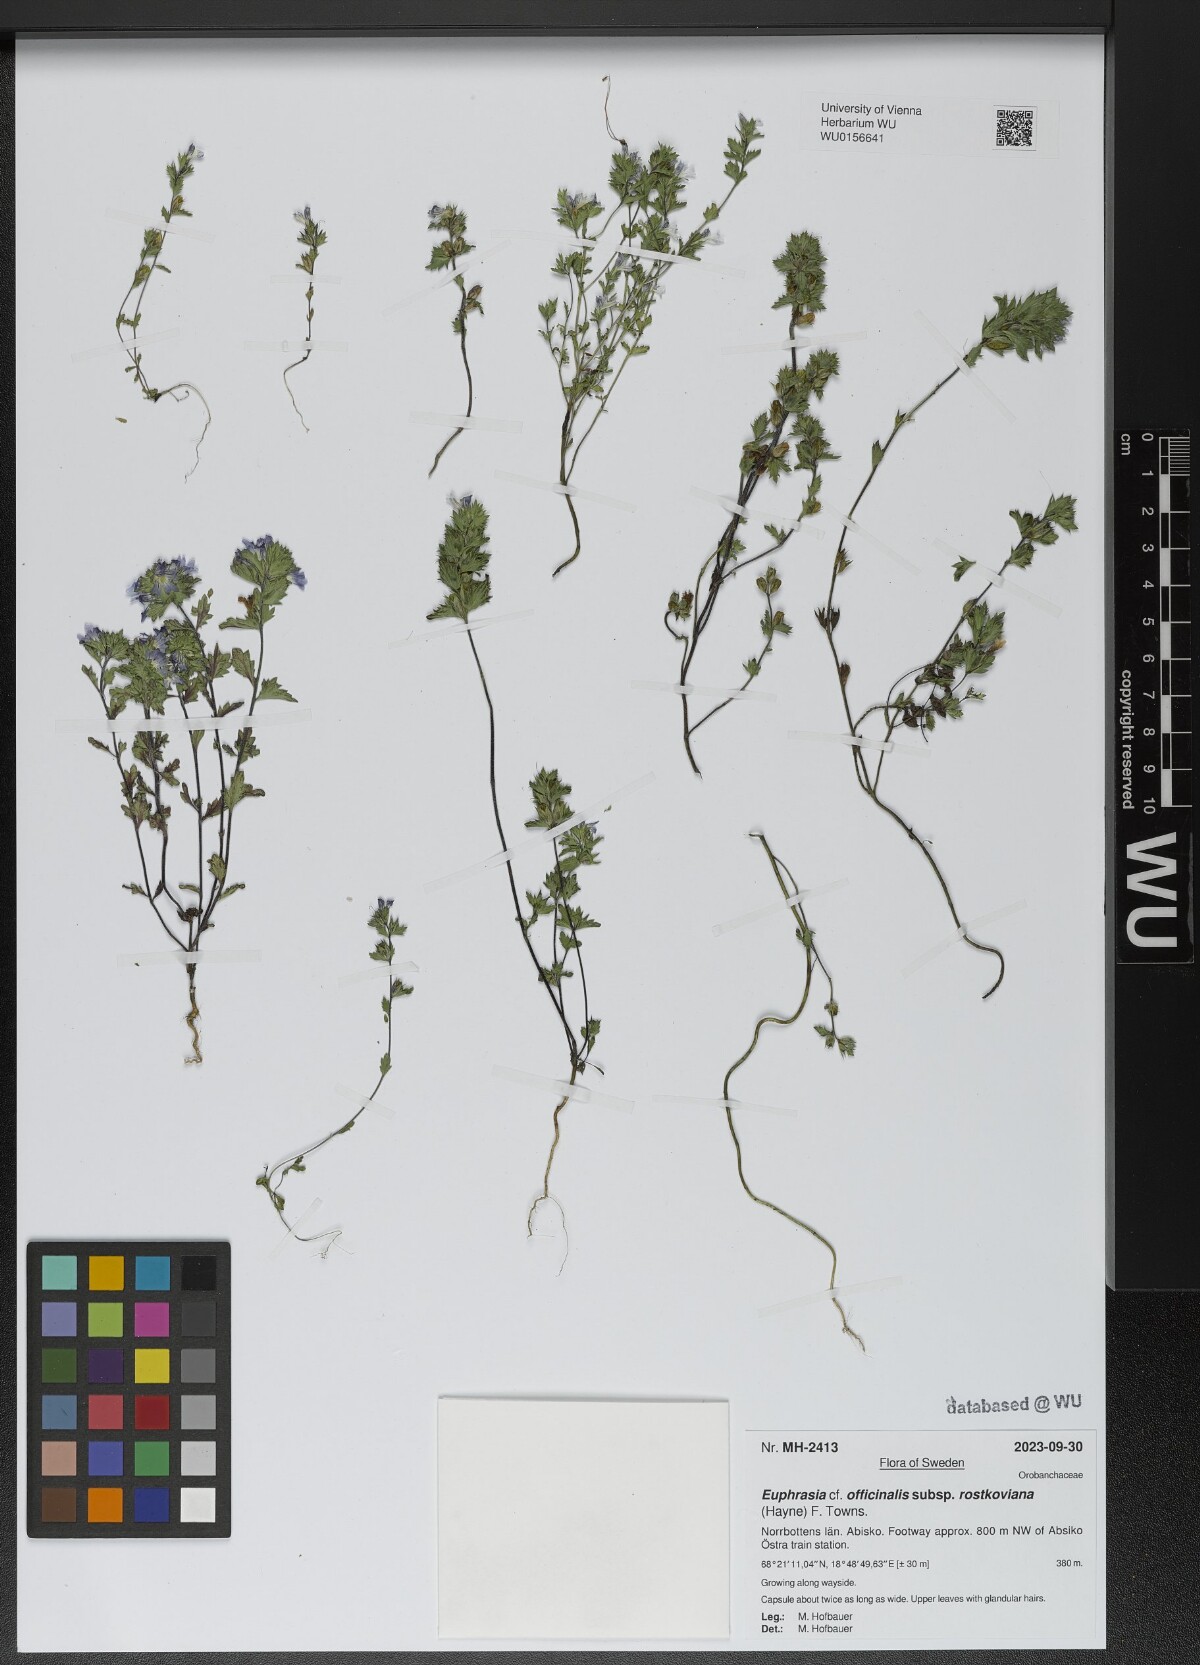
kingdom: Plantae
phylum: Tracheophyta
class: Magnoliopsida
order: Lamiales
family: Orobanchaceae
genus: Euphrasia
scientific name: Euphrasia officinalis
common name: Eyebright
